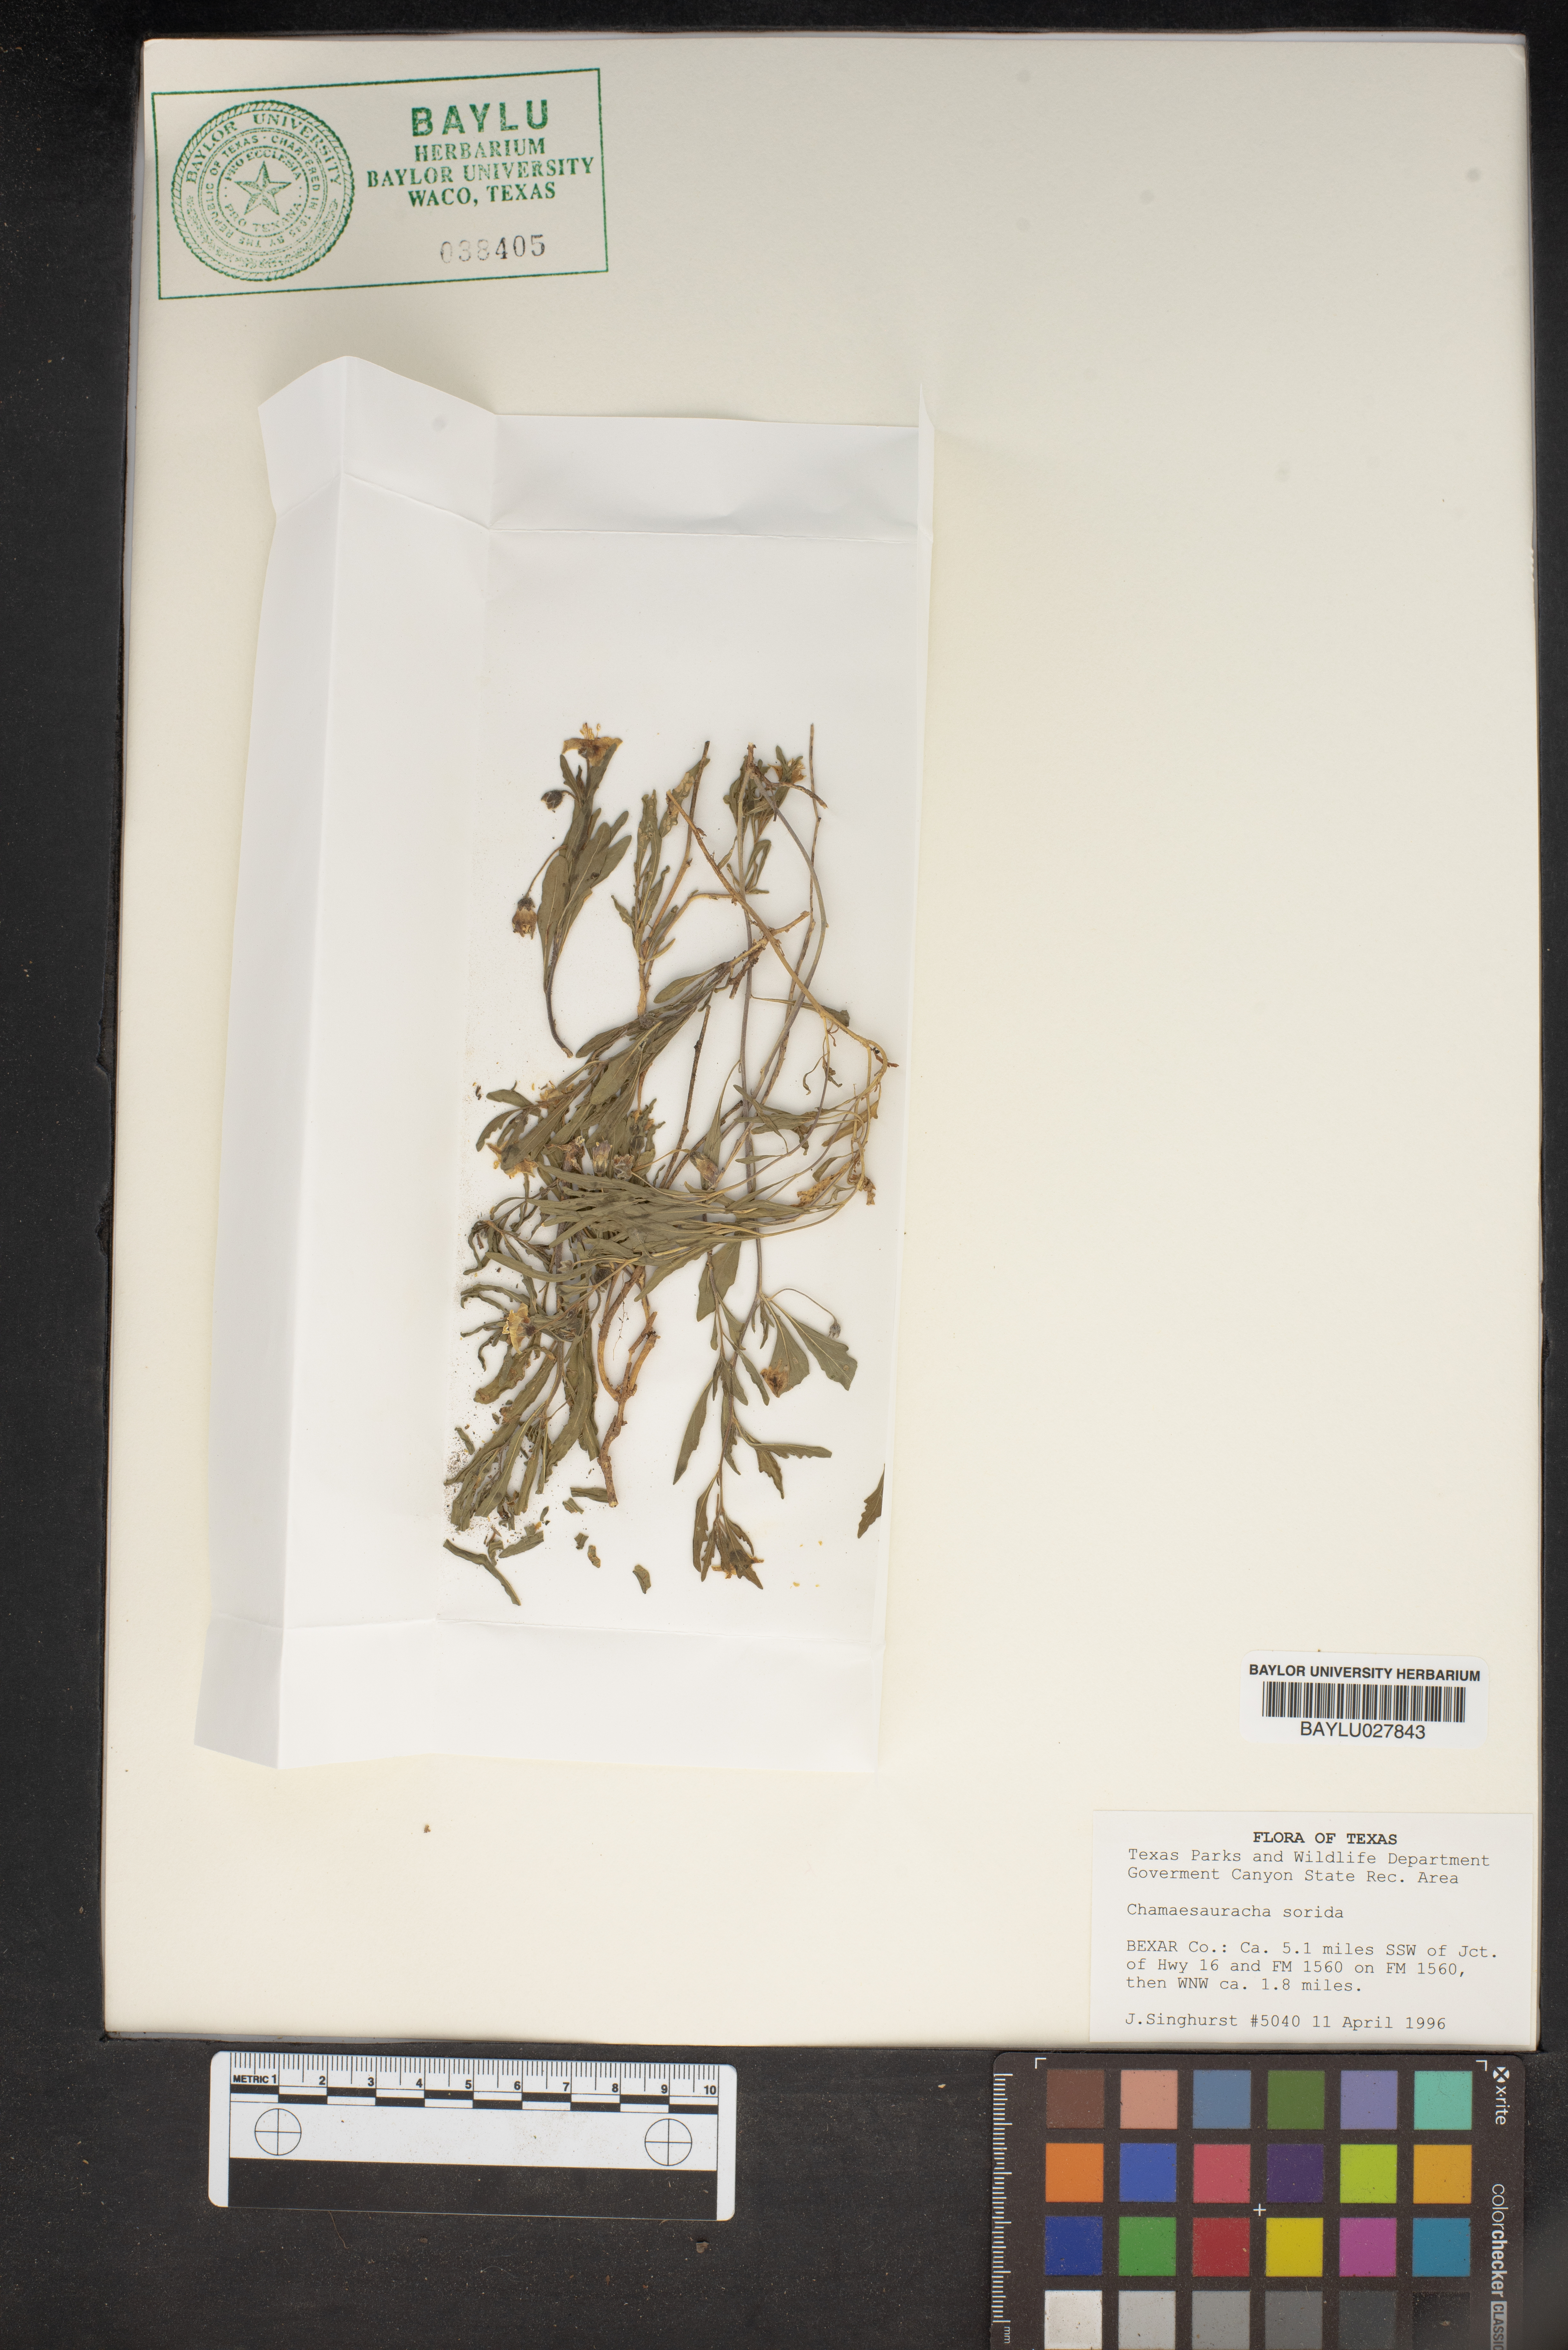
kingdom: Plantae
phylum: Tracheophyta
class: Magnoliopsida
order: Solanales
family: Solanaceae
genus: Chamaesaracha
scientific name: Chamaesaracha sordida
